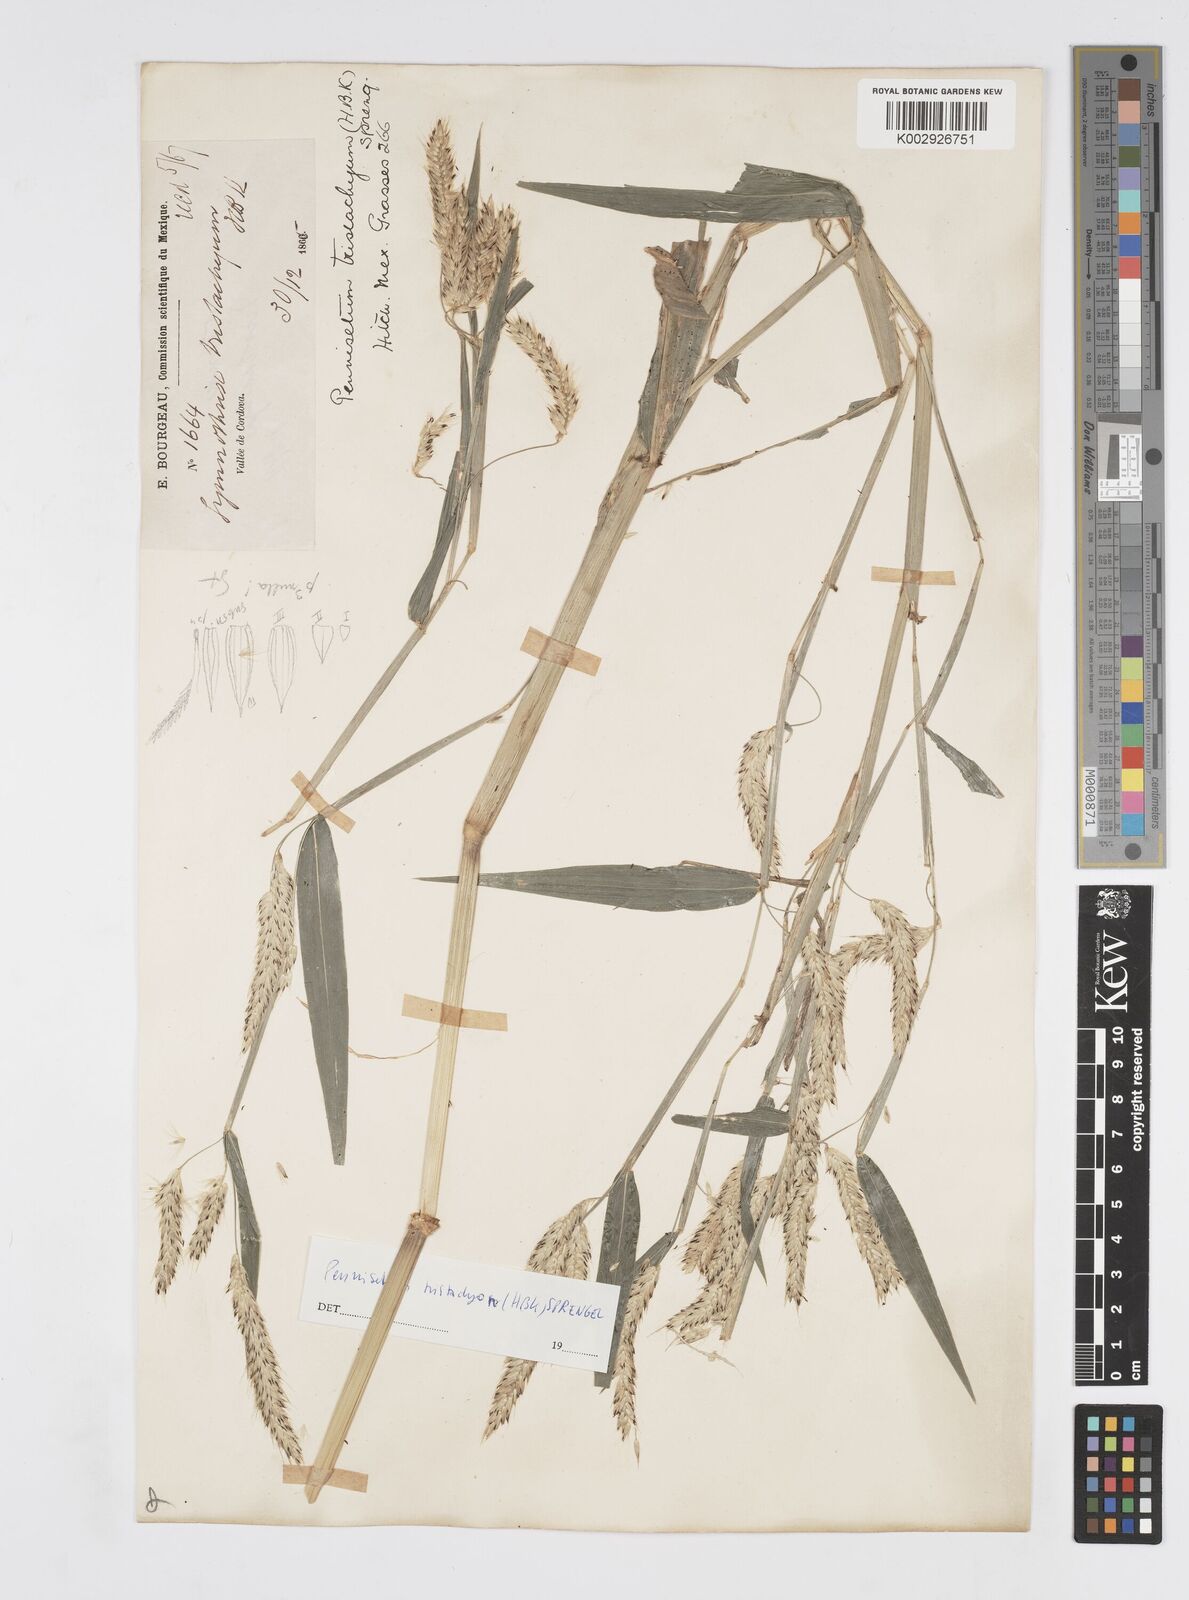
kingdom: Plantae
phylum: Tracheophyta
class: Liliopsida
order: Poales
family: Poaceae
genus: Cenchrus
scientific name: Cenchrus prolificus
